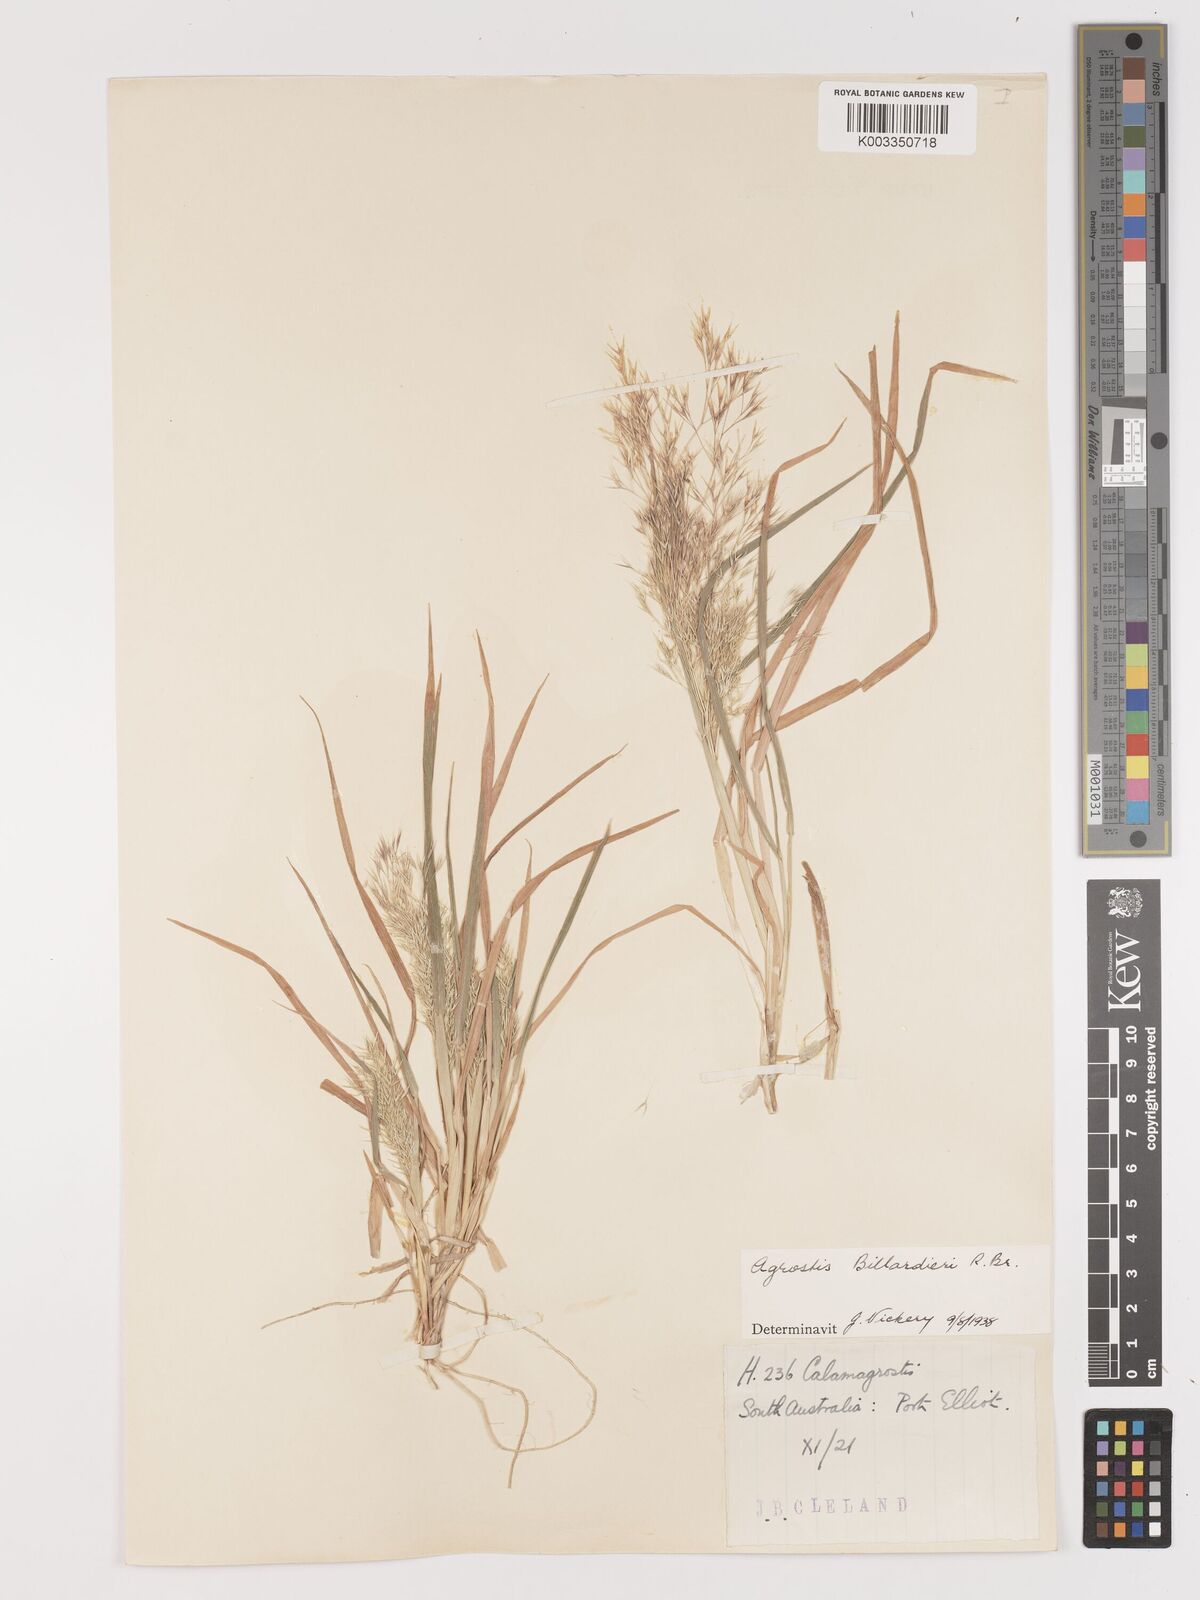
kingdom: Plantae
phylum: Tracheophyta
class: Liliopsida
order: Poales
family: Poaceae
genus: Lachnagrostis
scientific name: Lachnagrostis billardierei
